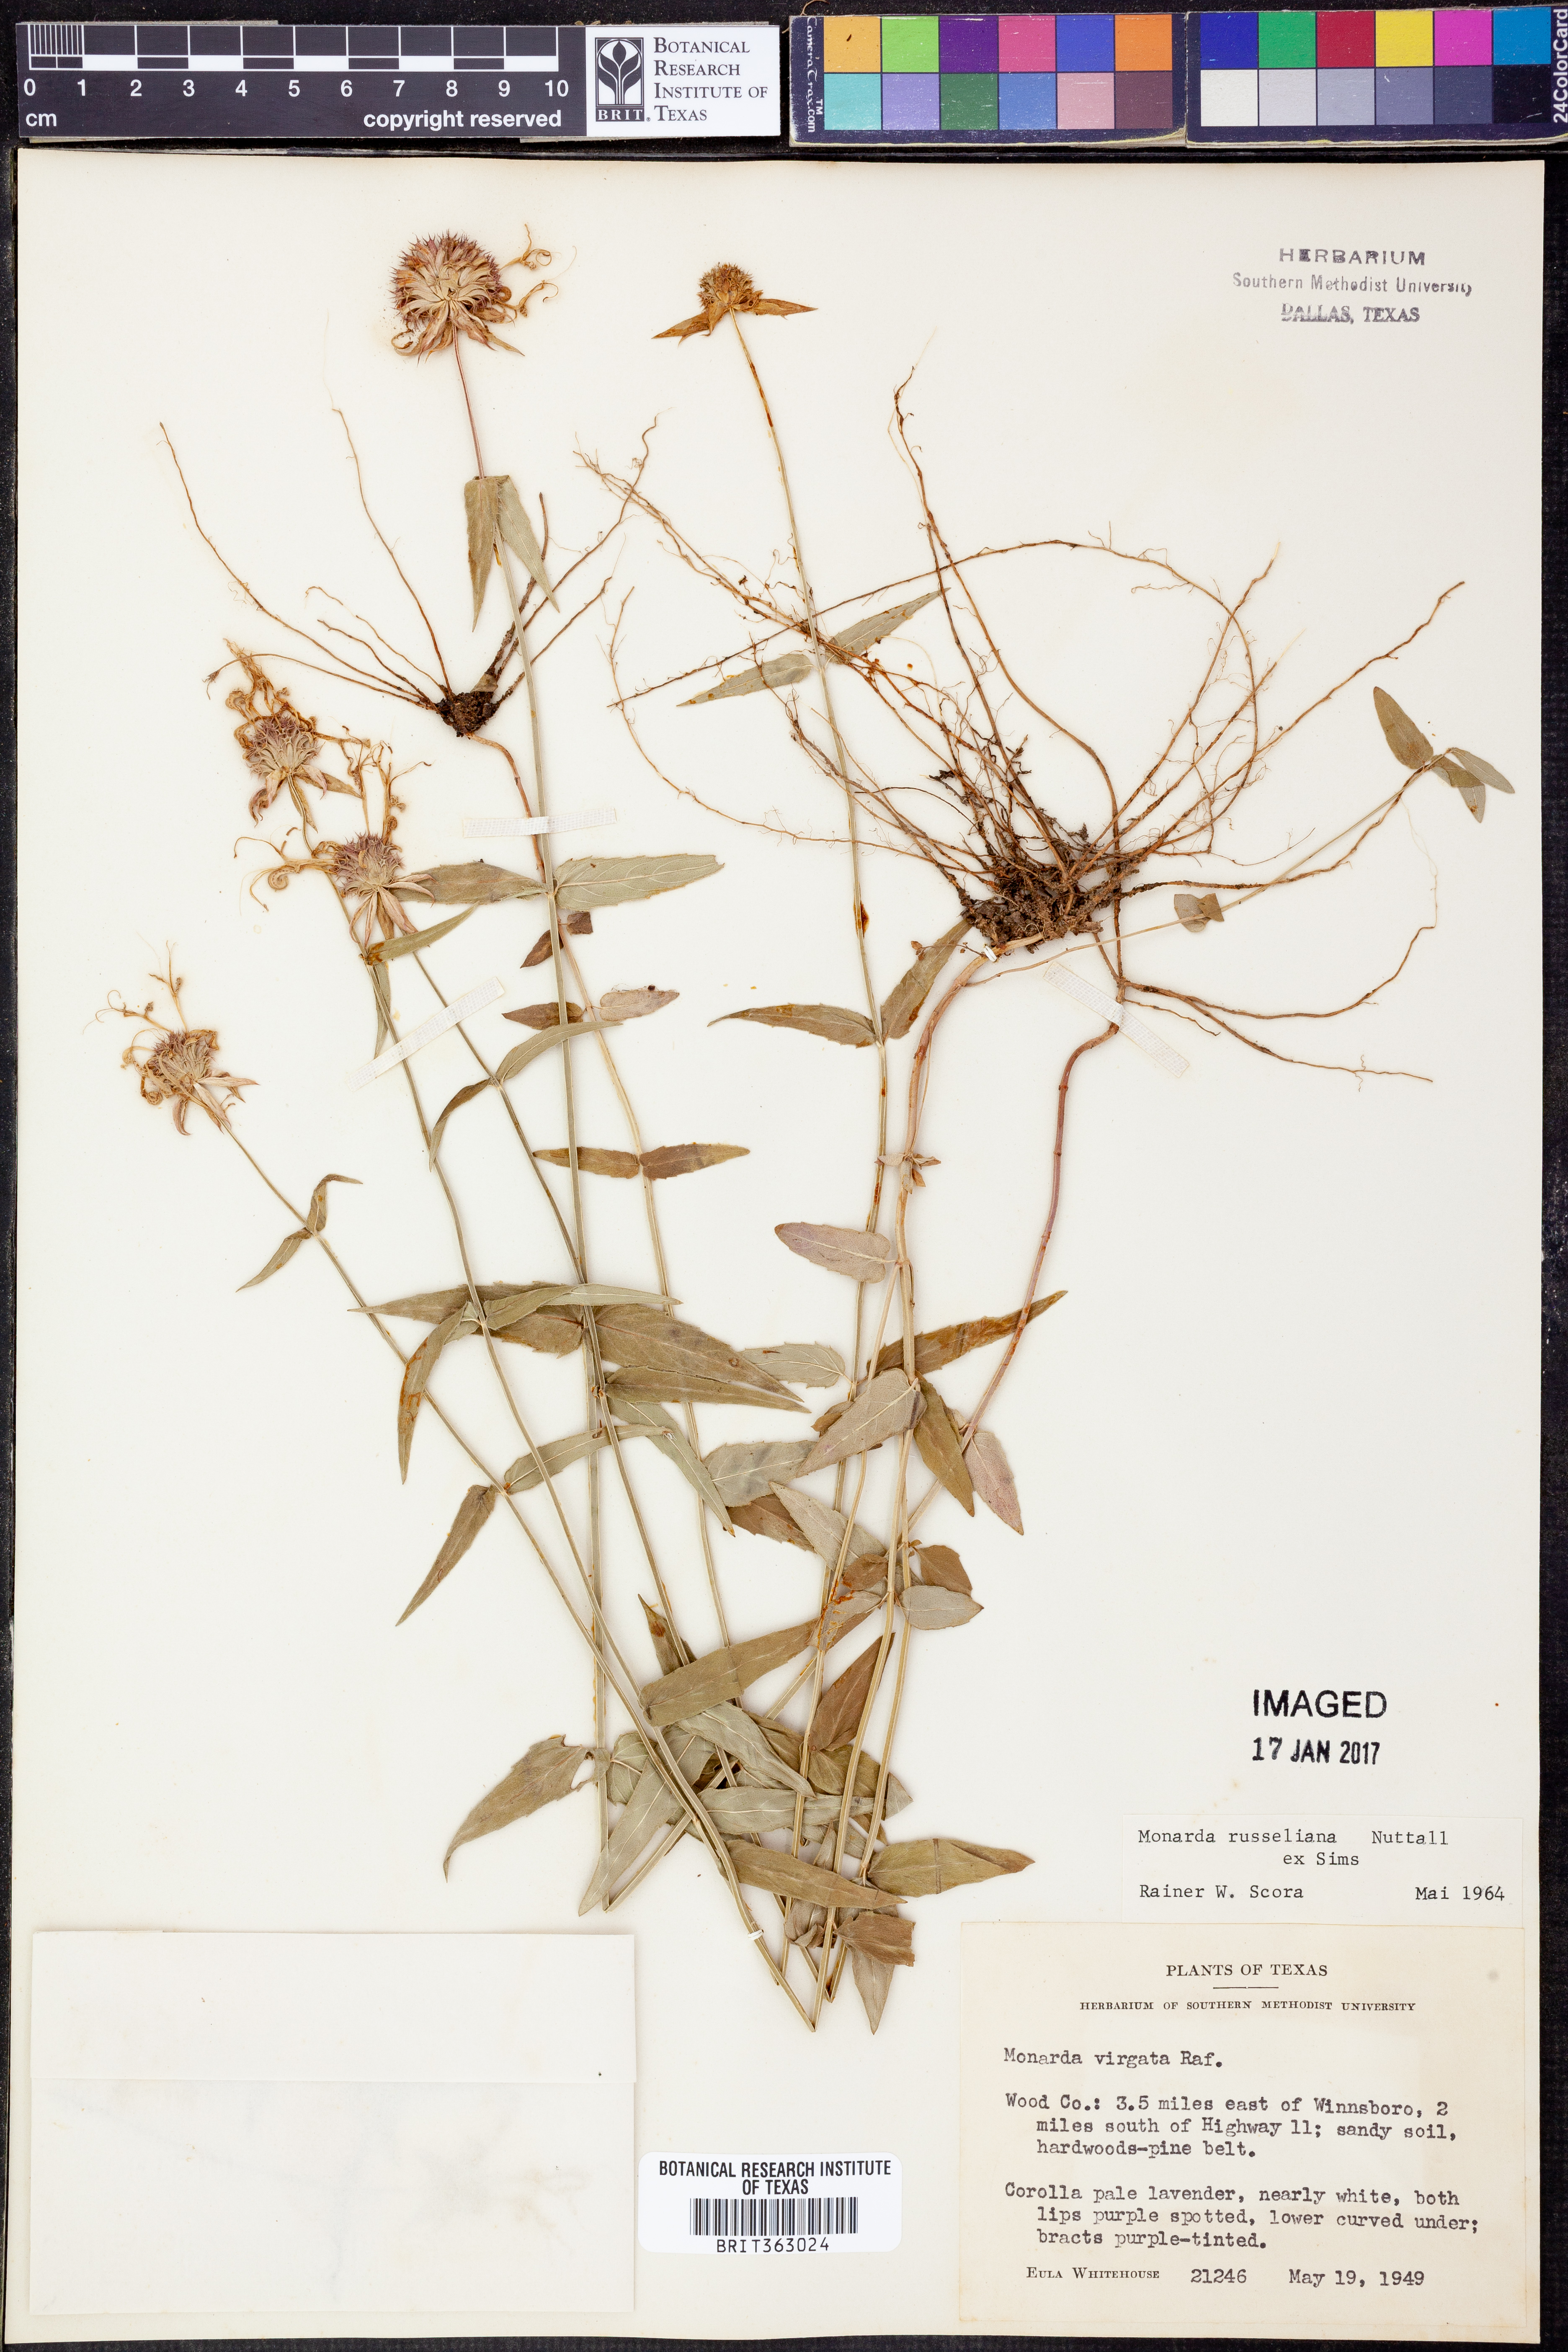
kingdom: Plantae
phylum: Tracheophyta
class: Magnoliopsida
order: Lamiales
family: Lamiaceae
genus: Monarda
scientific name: Monarda russeliana
